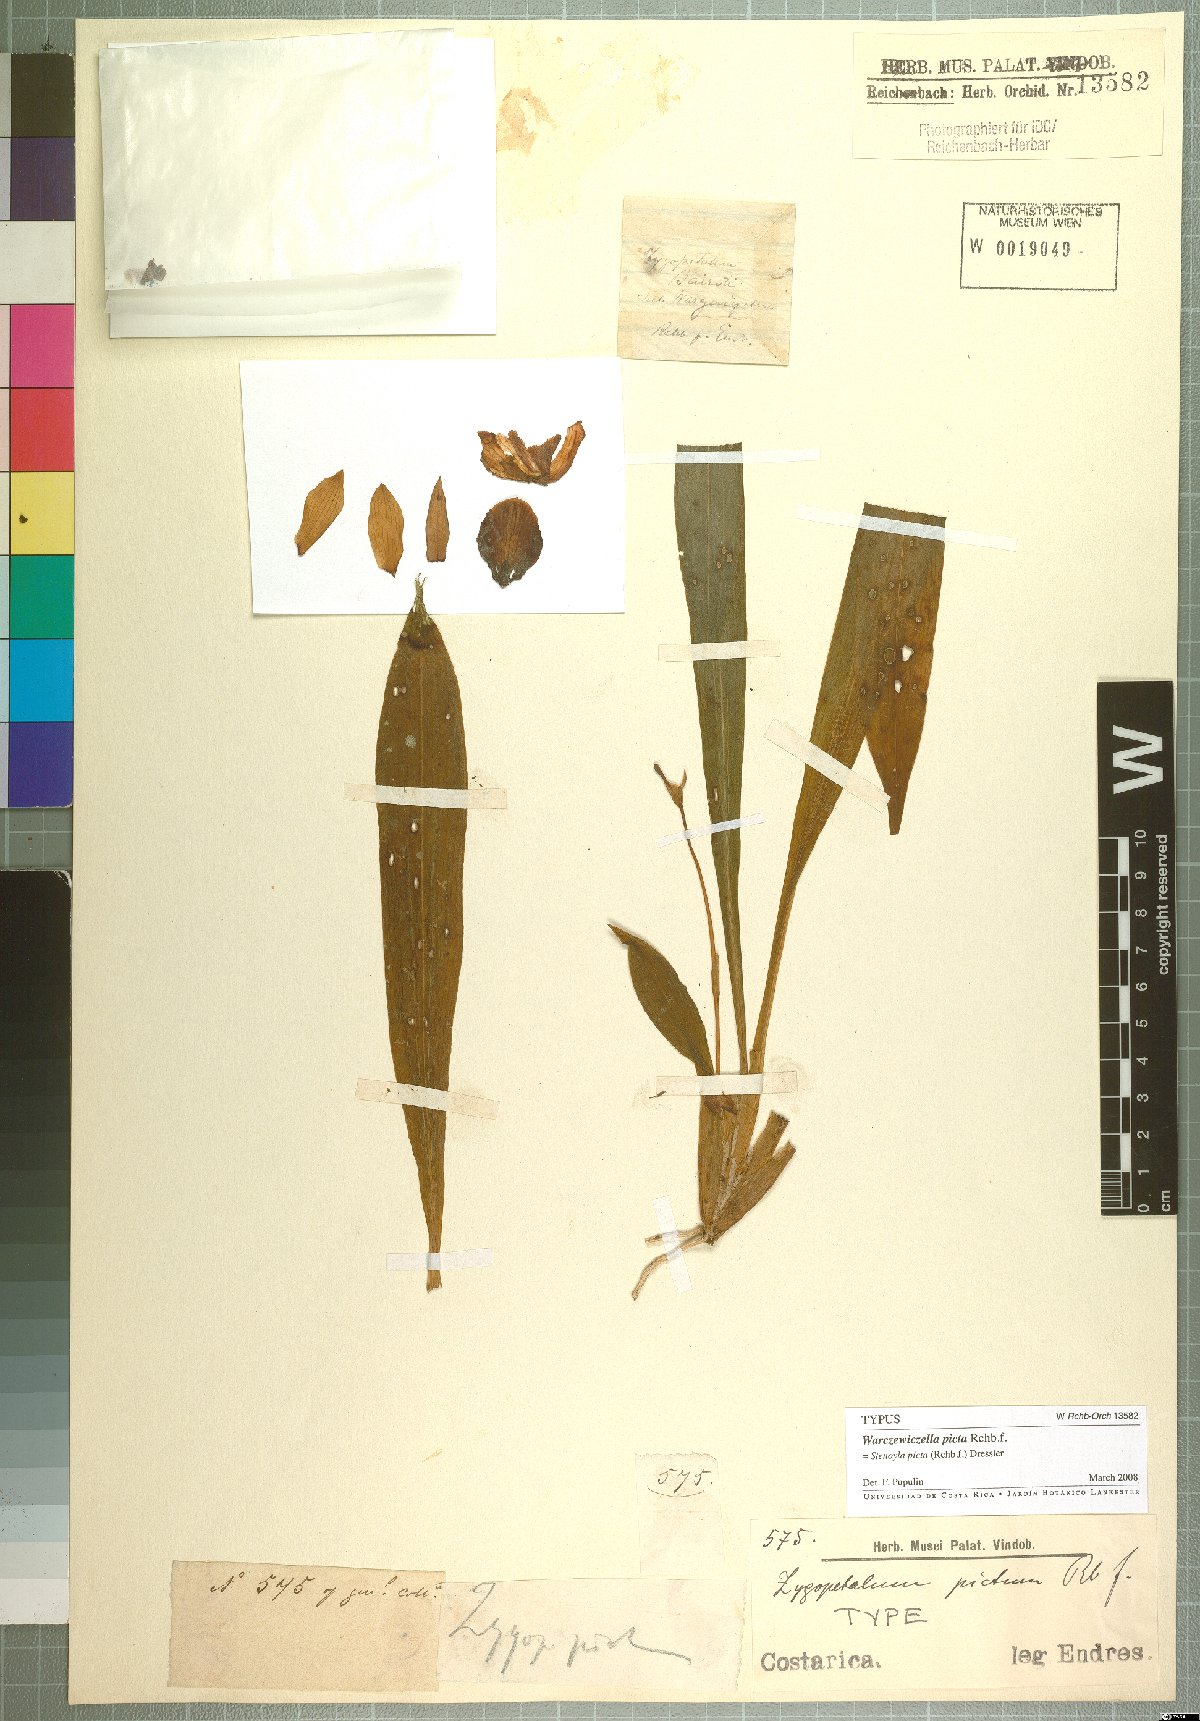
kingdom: Plantae
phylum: Tracheophyta
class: Liliopsida
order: Asparagales
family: Orchidaceae
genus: Stenotyla
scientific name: Stenotyla picta
